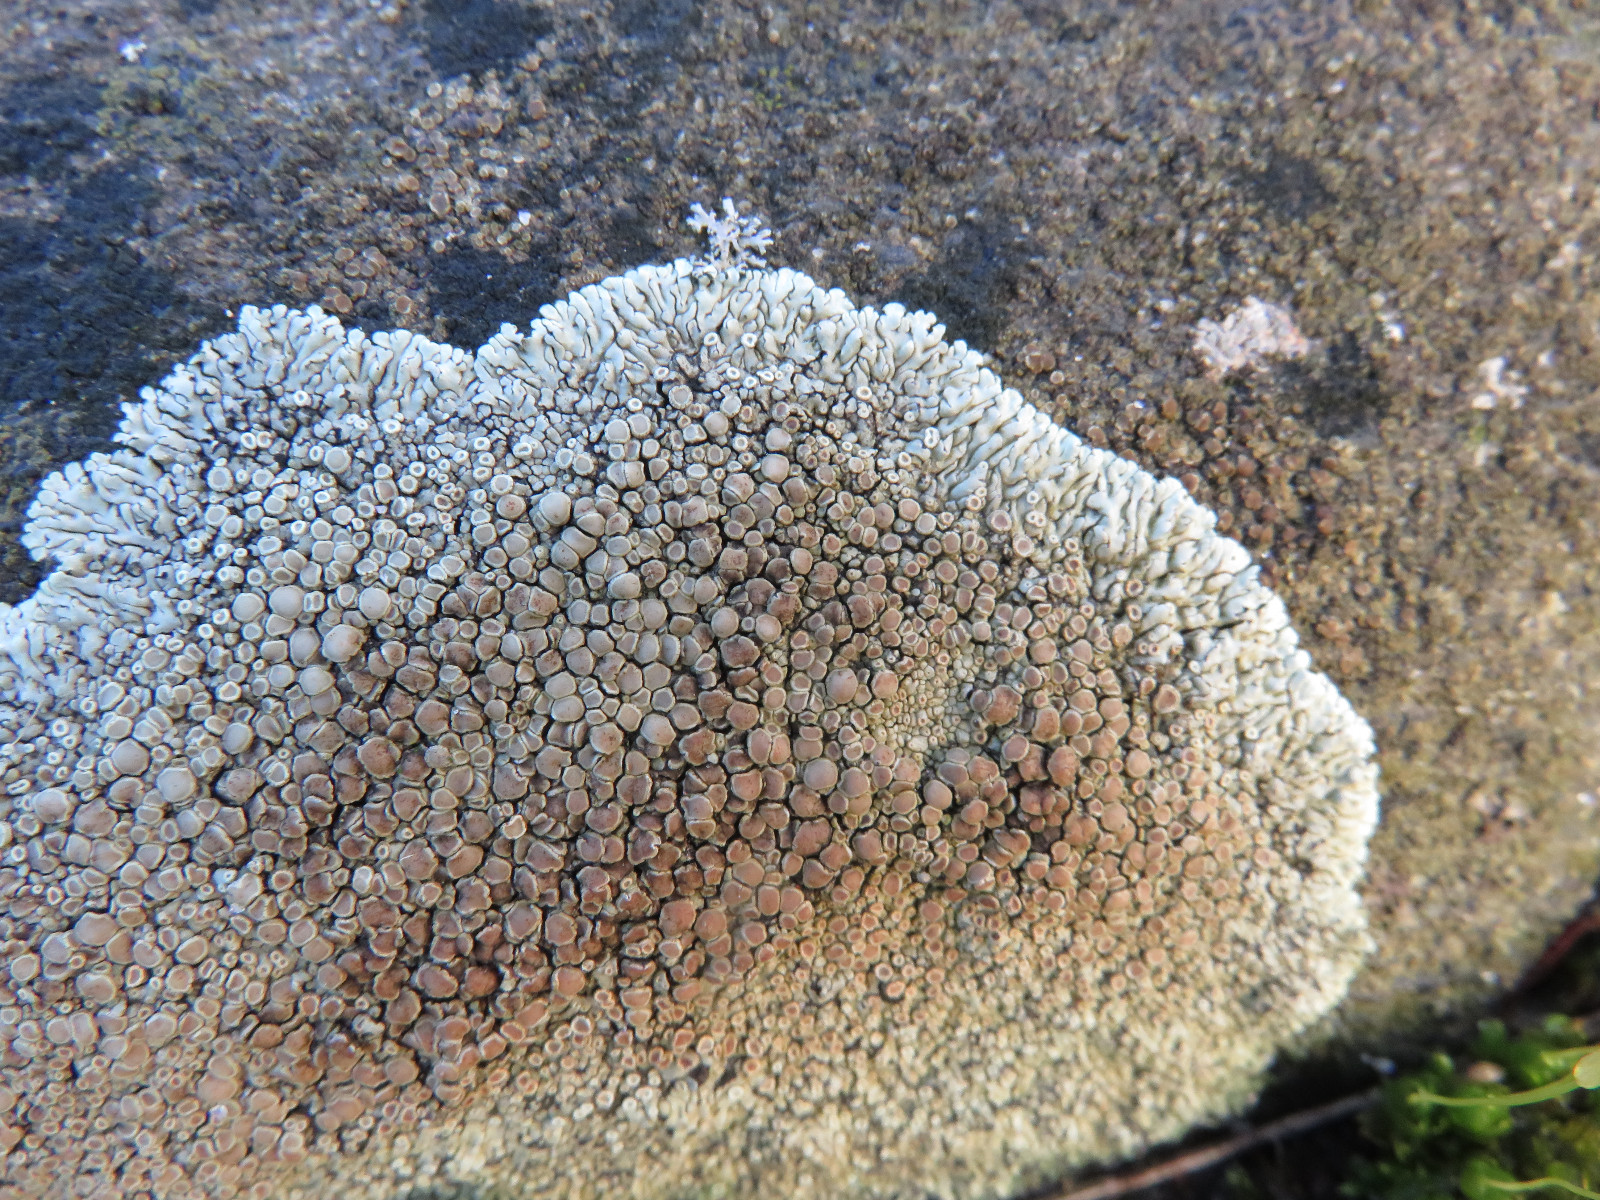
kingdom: Fungi
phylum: Ascomycota
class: Lecanoromycetes
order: Lecanorales
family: Lecanoraceae
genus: Protoparmeliopsis
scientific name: Protoparmeliopsis muralis
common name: randfliget kantskivelav
